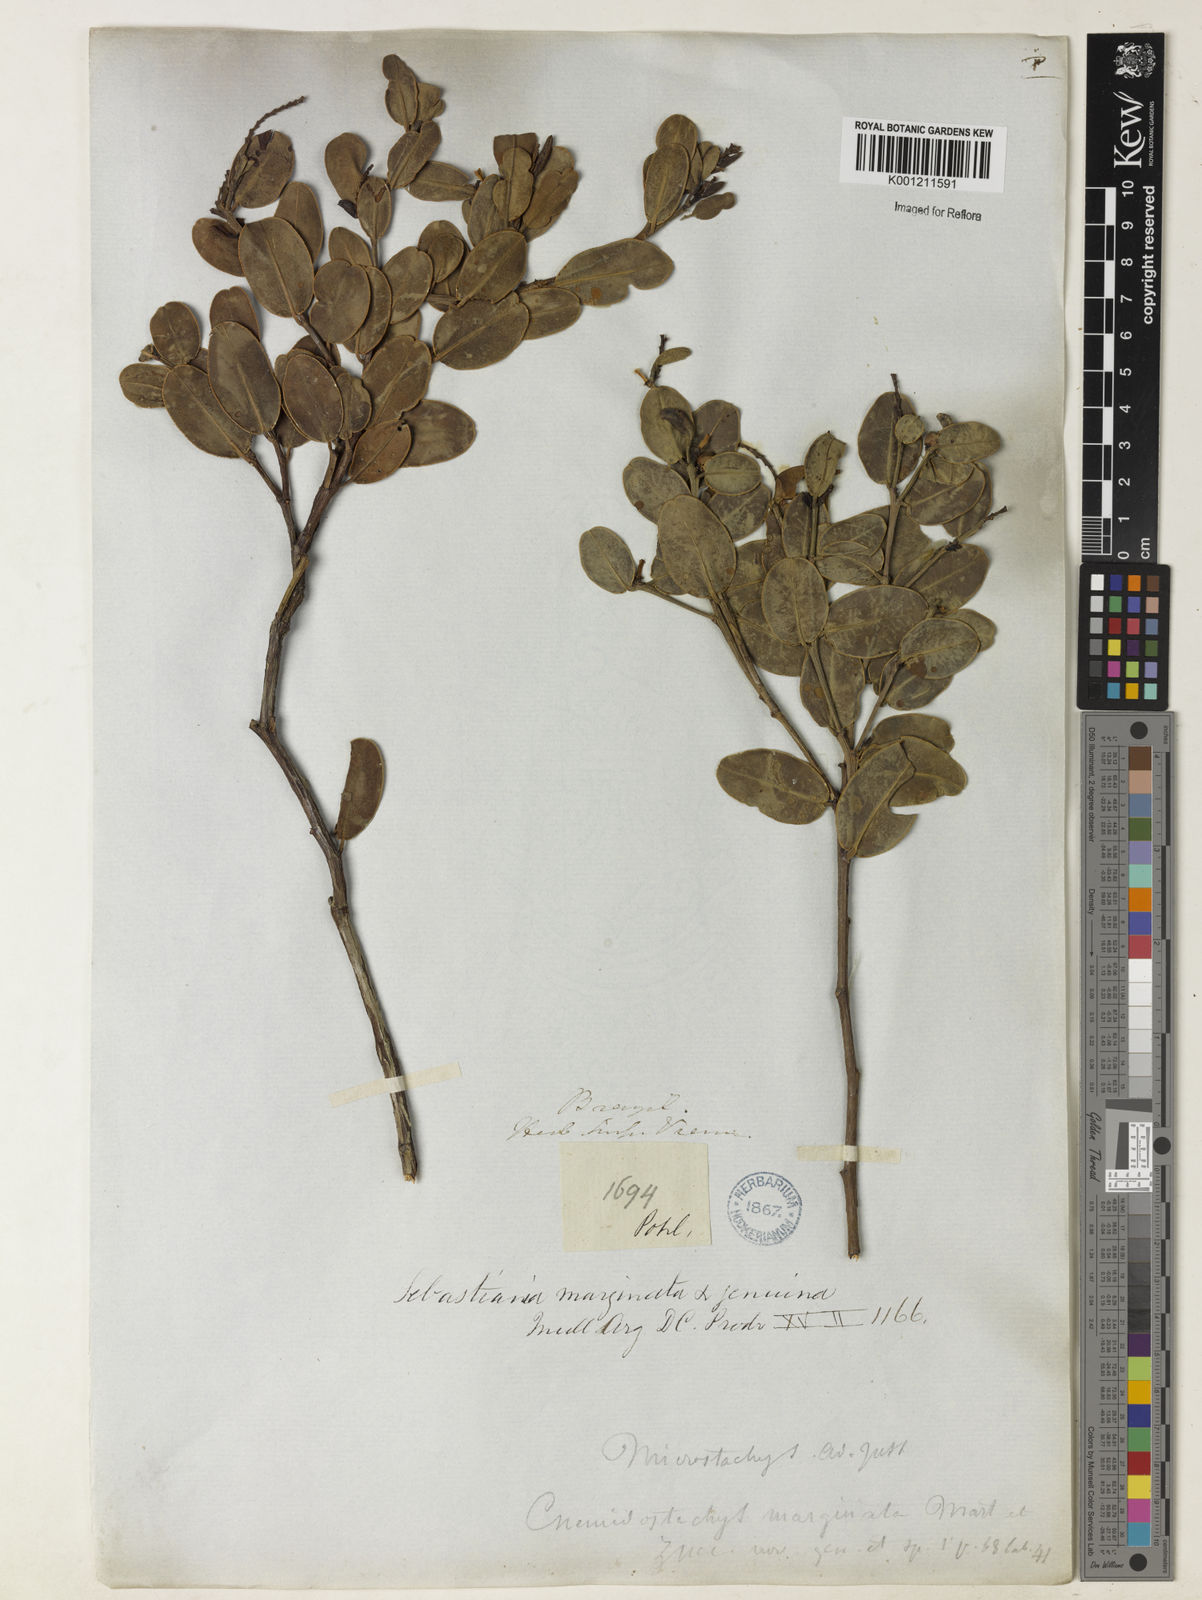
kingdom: Plantae
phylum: Tracheophyta
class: Magnoliopsida
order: Malpighiales
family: Euphorbiaceae
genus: Microstachys
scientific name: Microstachys
